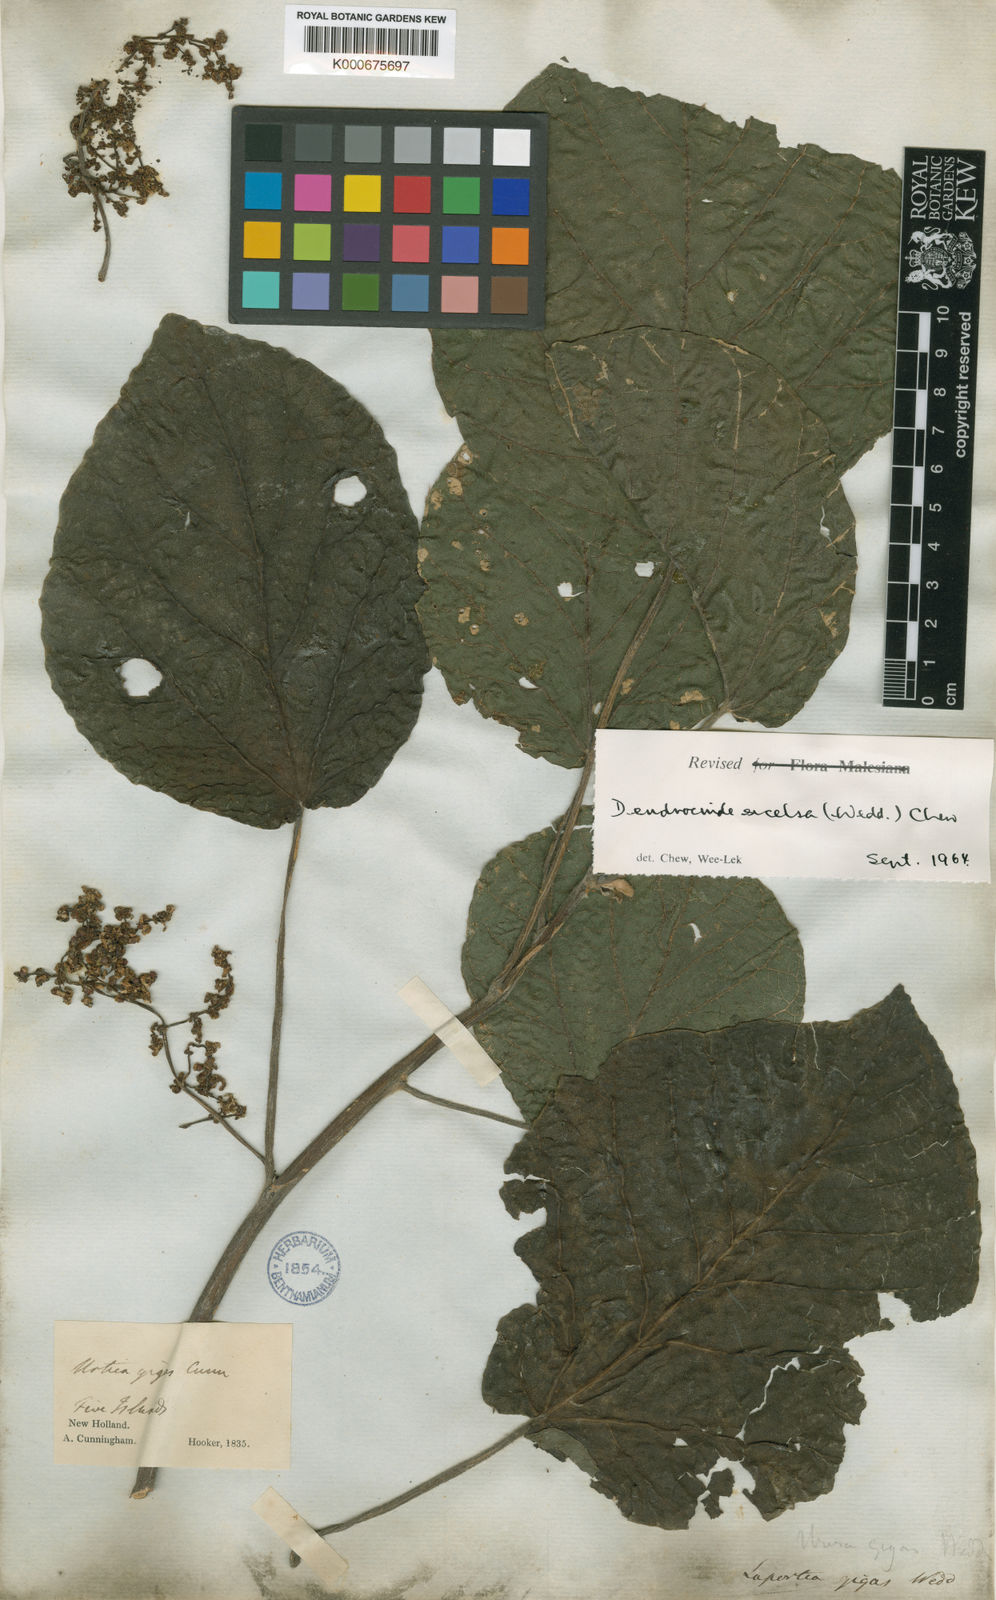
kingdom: Plantae
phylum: Tracheophyta
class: Magnoliopsida
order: Rosales
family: Urticaceae
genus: Dendrocnide
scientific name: Dendrocnide excelsa
